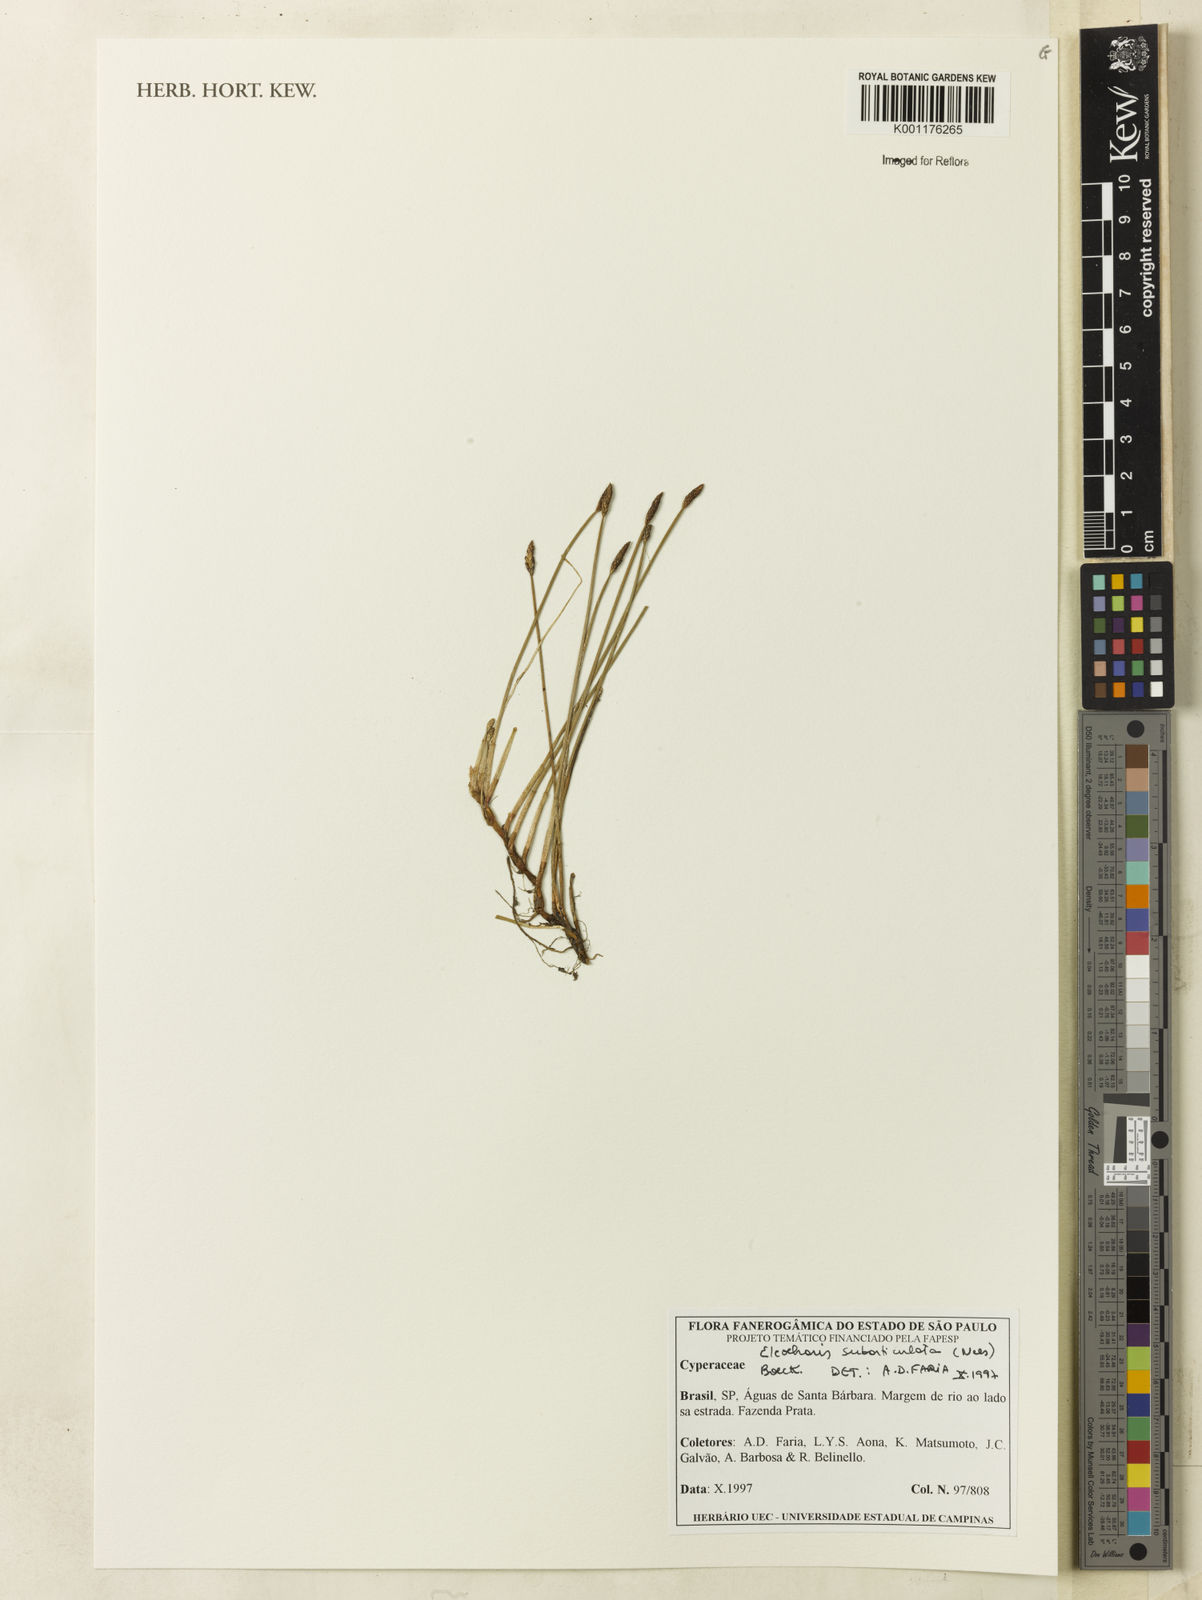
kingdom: Plantae
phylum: Tracheophyta
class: Liliopsida
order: Poales
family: Cyperaceae
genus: Eleocharis
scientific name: Eleocharis subarticulata
